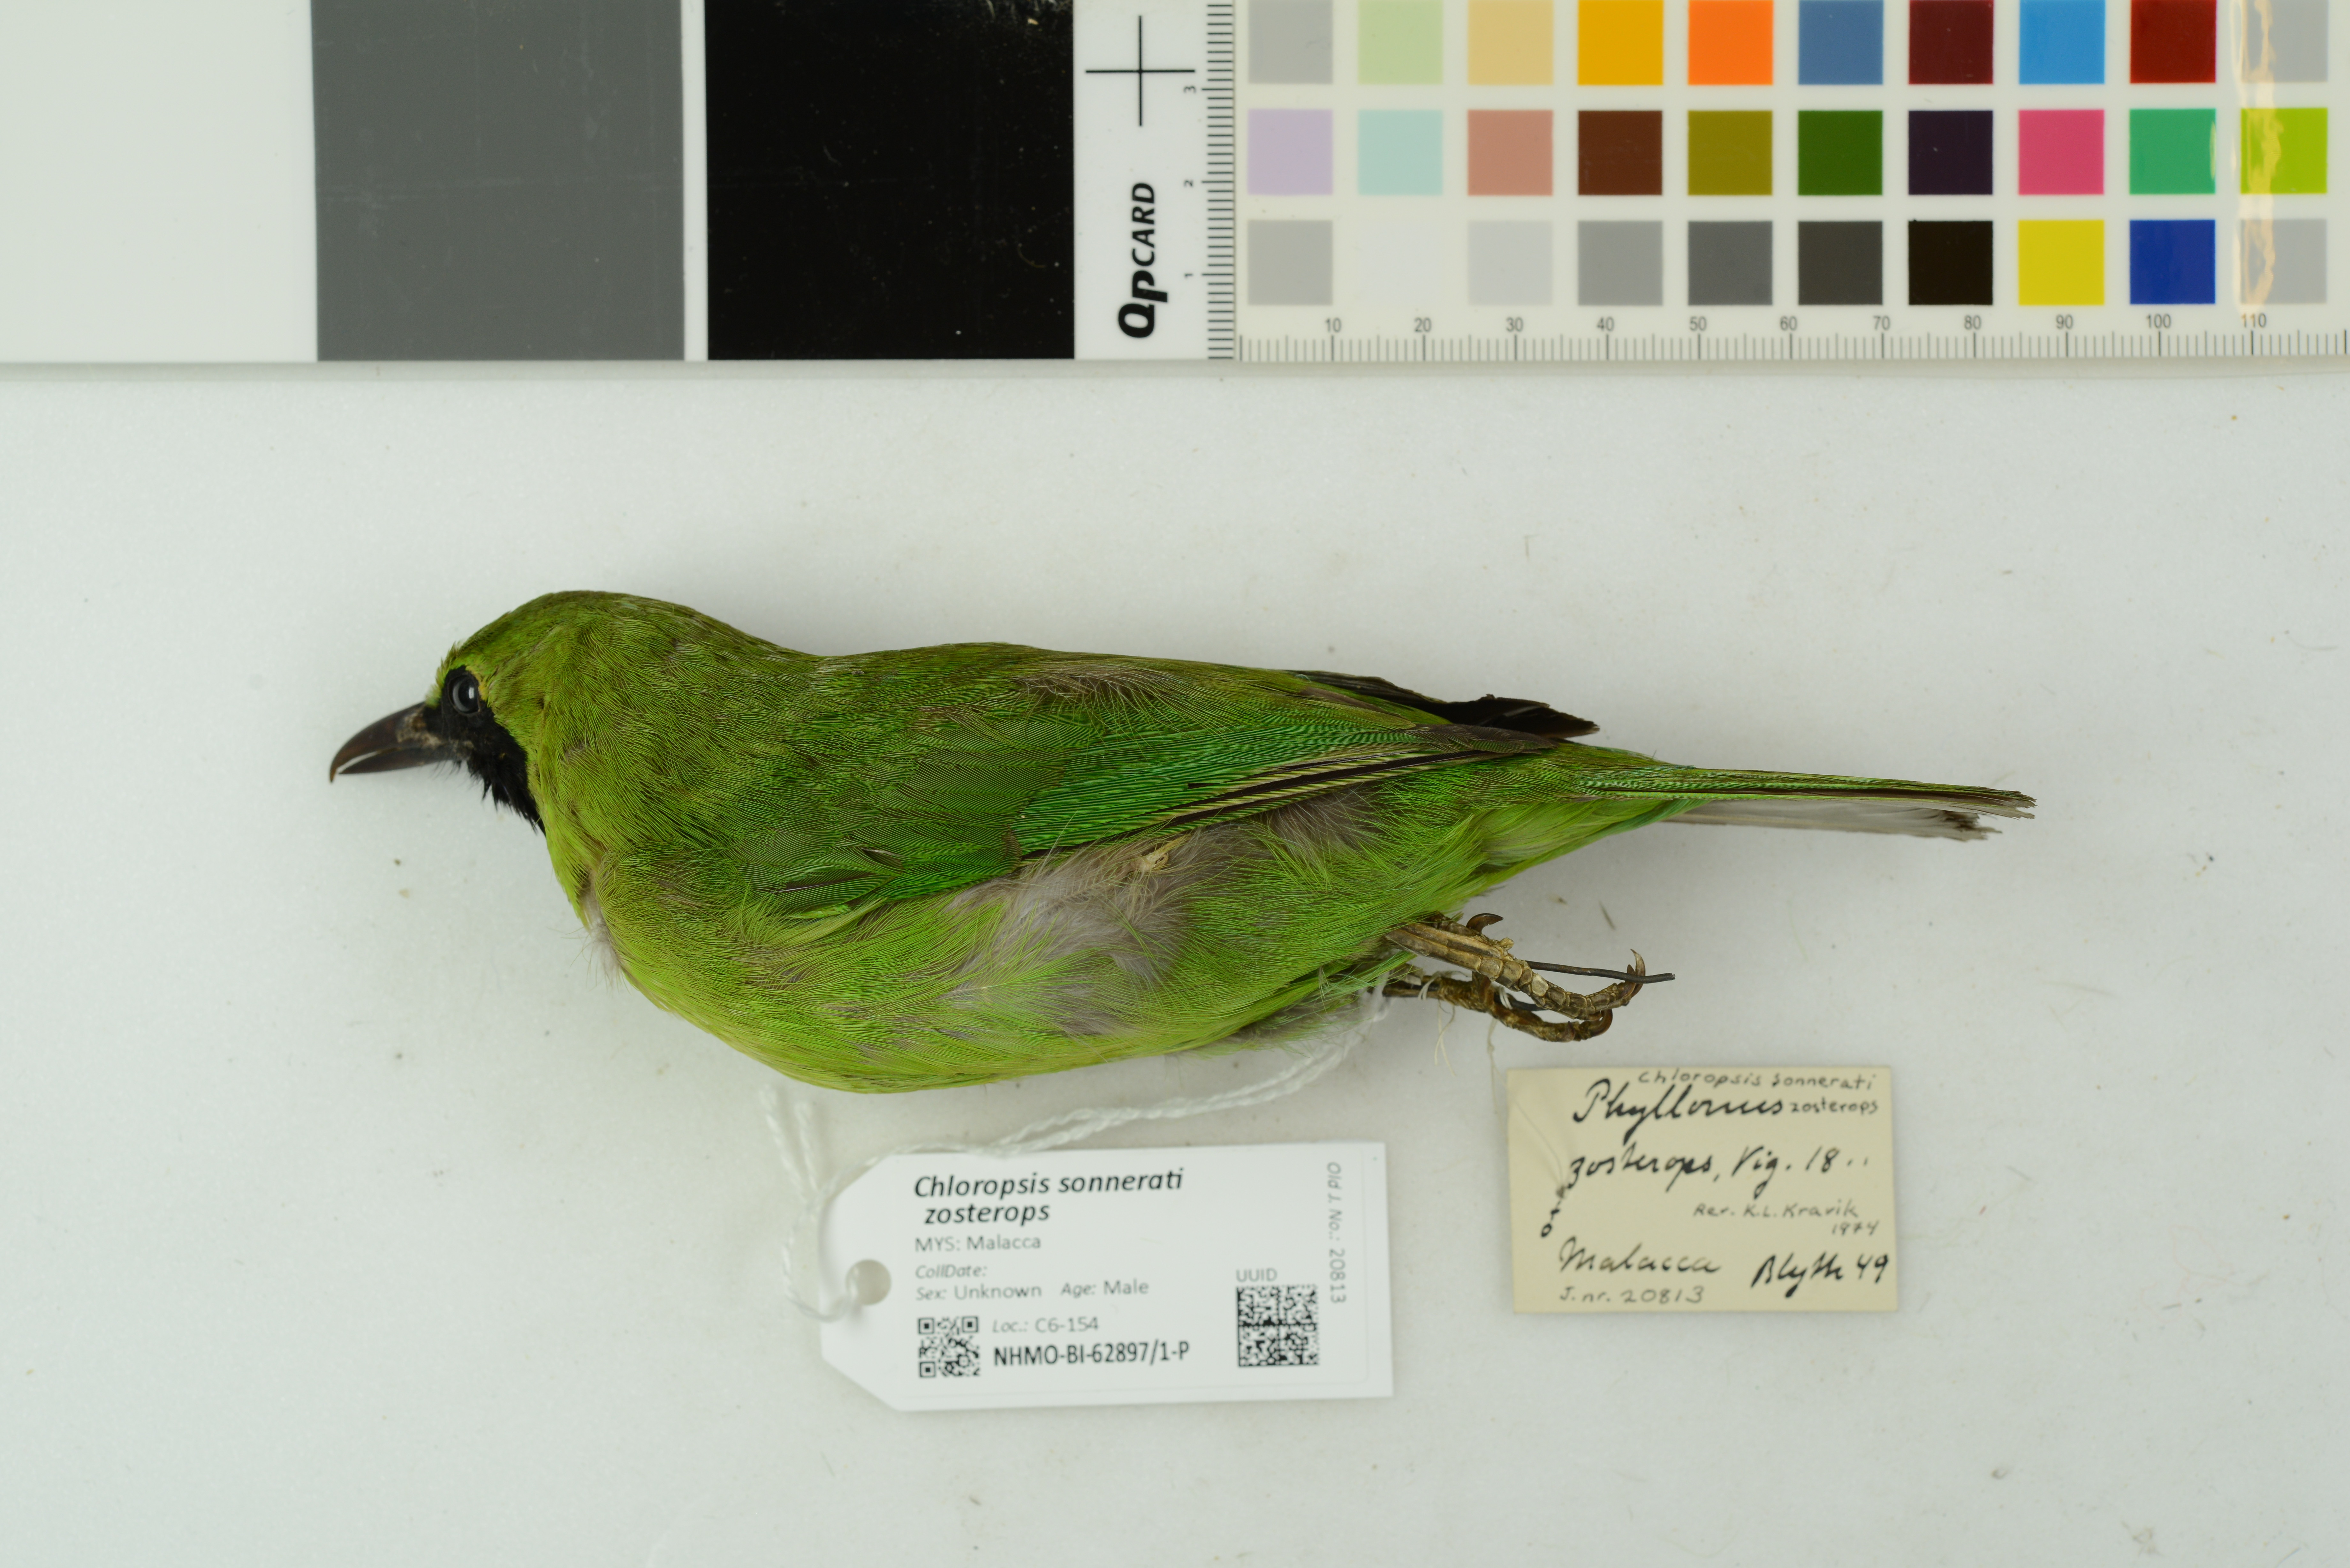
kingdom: Animalia
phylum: Chordata
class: Aves
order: Passeriformes
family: Chloropseidae
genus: Chloropsis
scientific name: Chloropsis sonnerati
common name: Greater green leafbird
